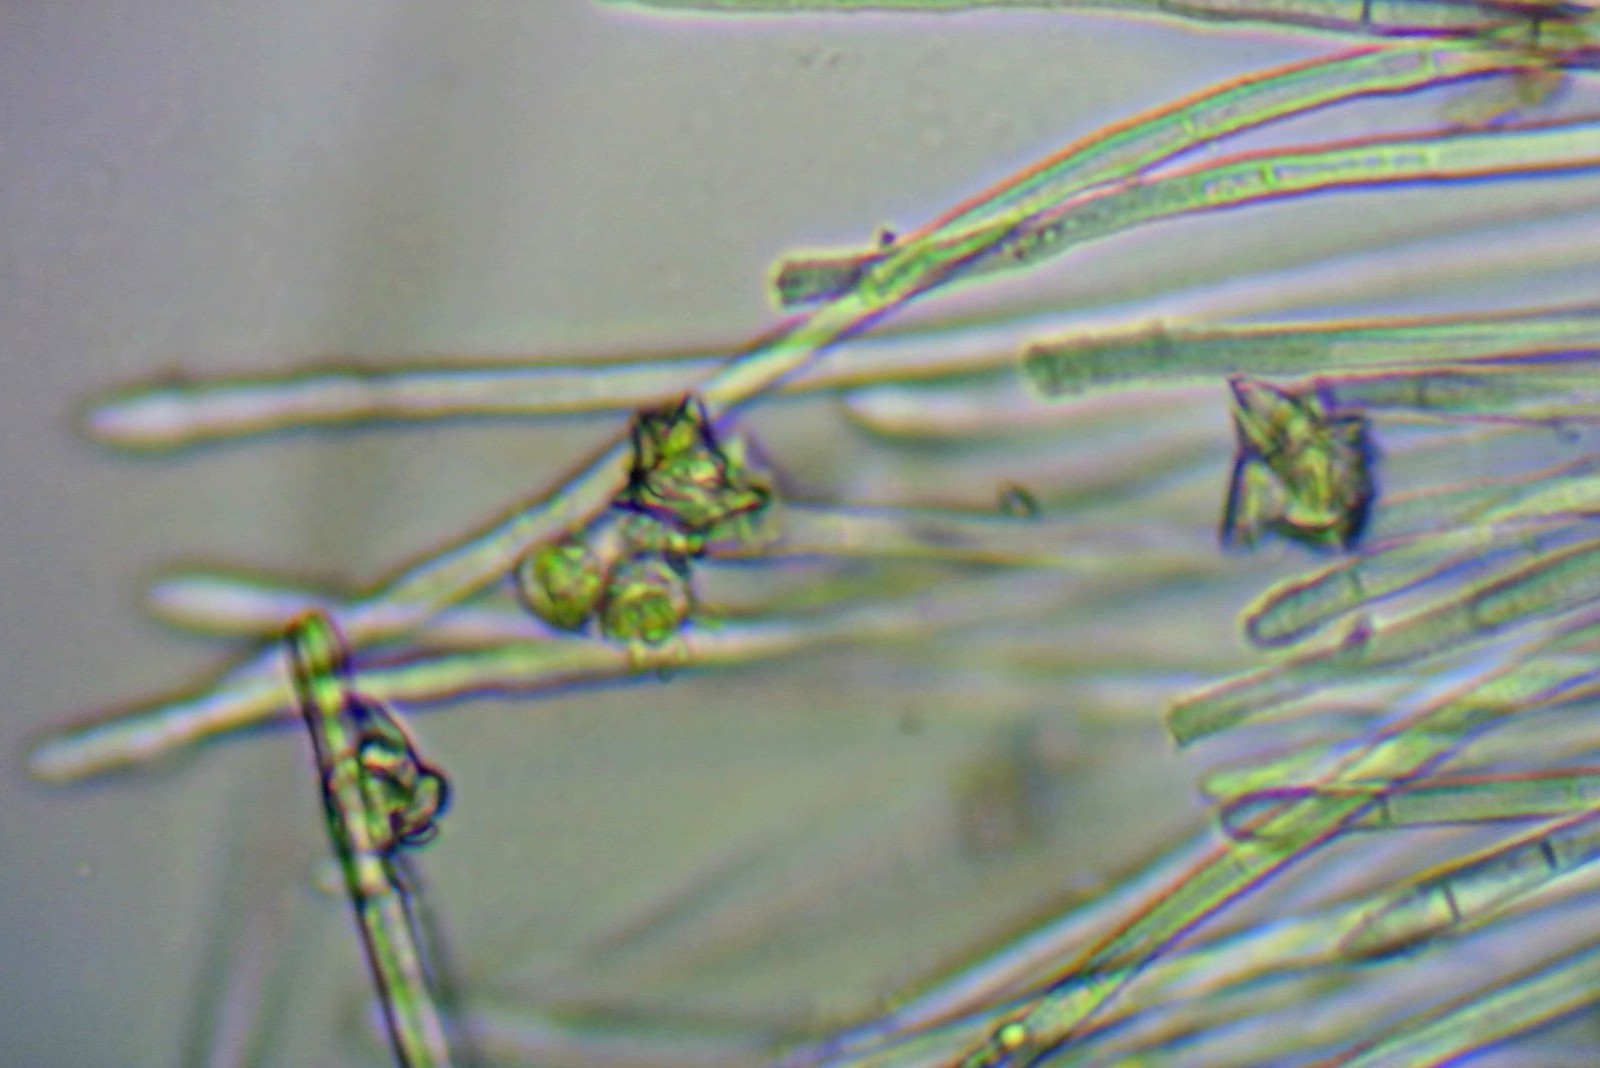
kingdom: Fungi
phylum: Ascomycota
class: Leotiomycetes
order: Helotiales
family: Lachnaceae
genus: Capitotricha
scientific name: Capitotricha bicolor
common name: prægtig frynseskive
